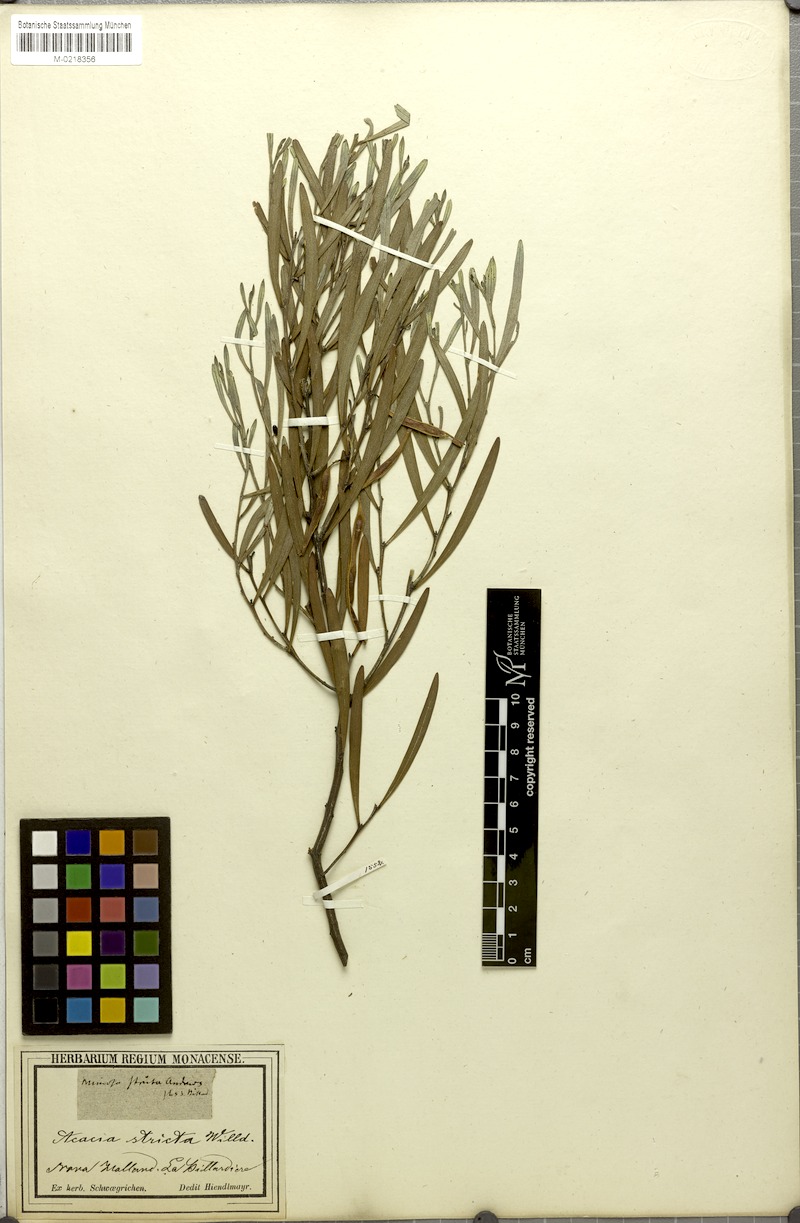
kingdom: Plantae
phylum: Tracheophyta
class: Magnoliopsida
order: Fabales
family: Fabaceae
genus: Acacia
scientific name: Acacia stricta
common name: Hop wattle
